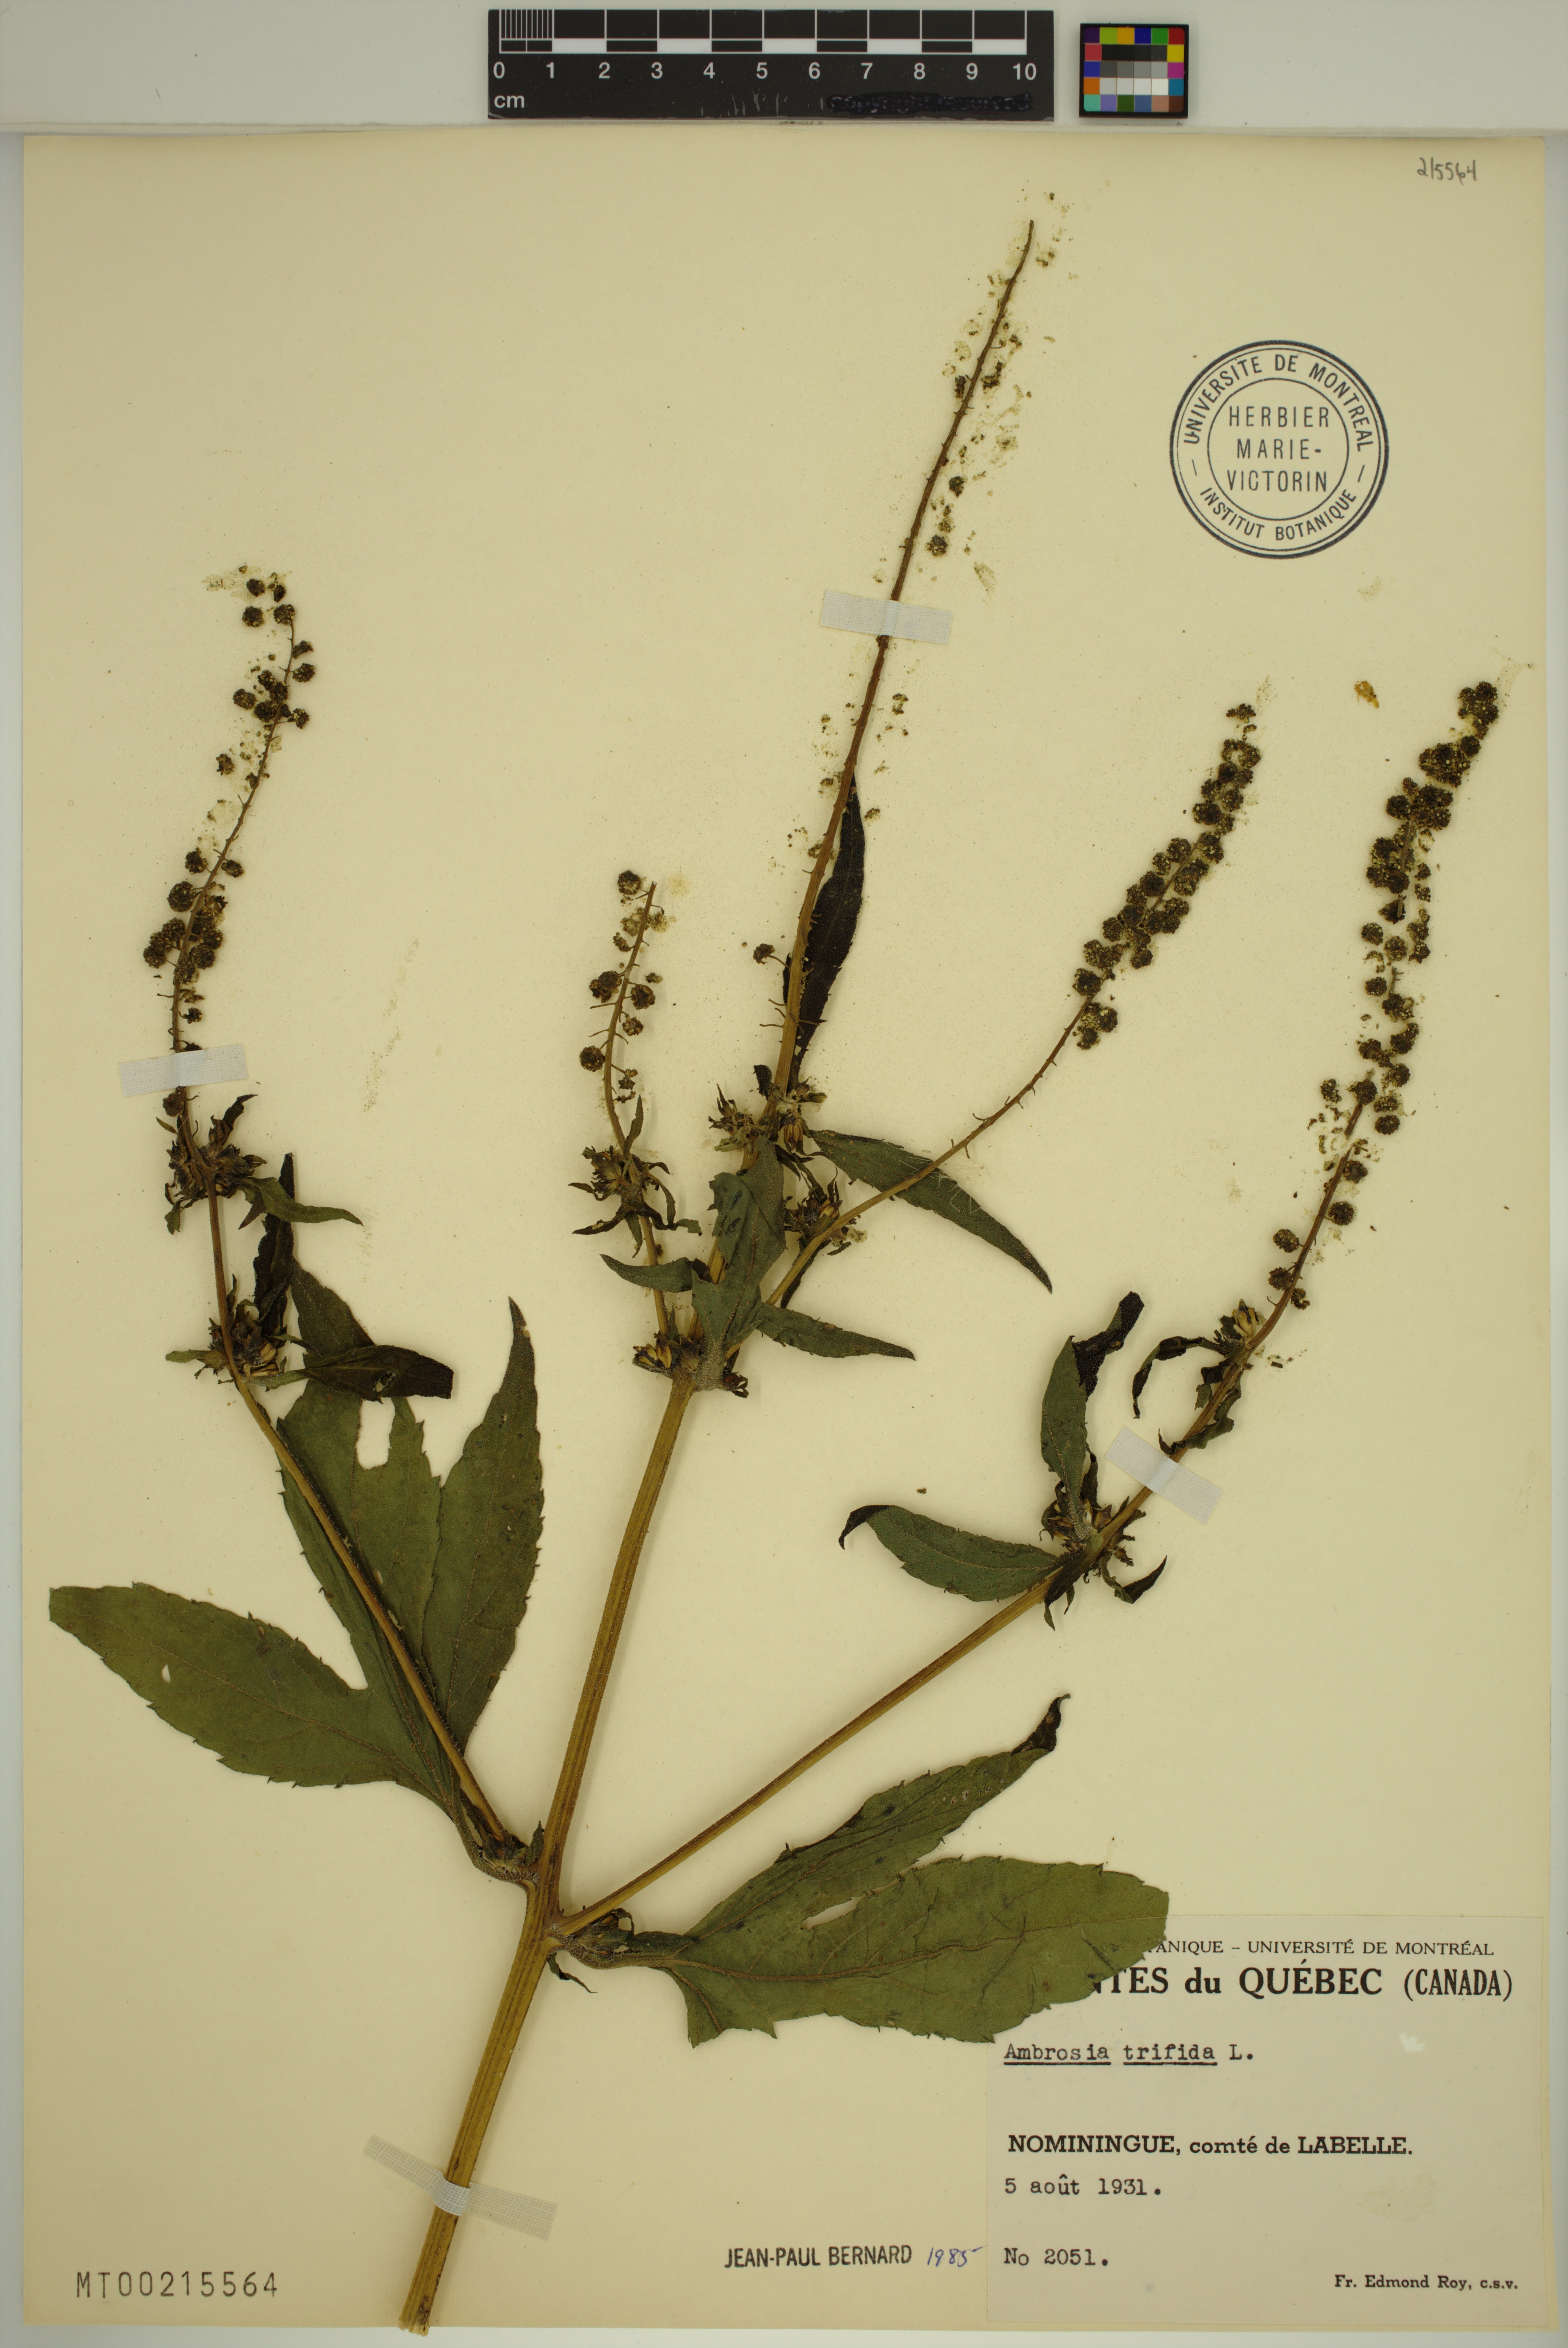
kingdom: Plantae
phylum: Tracheophyta
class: Magnoliopsida
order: Asterales
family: Asteraceae
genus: Ambrosia
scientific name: Ambrosia trifida
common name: Giant ragweed
